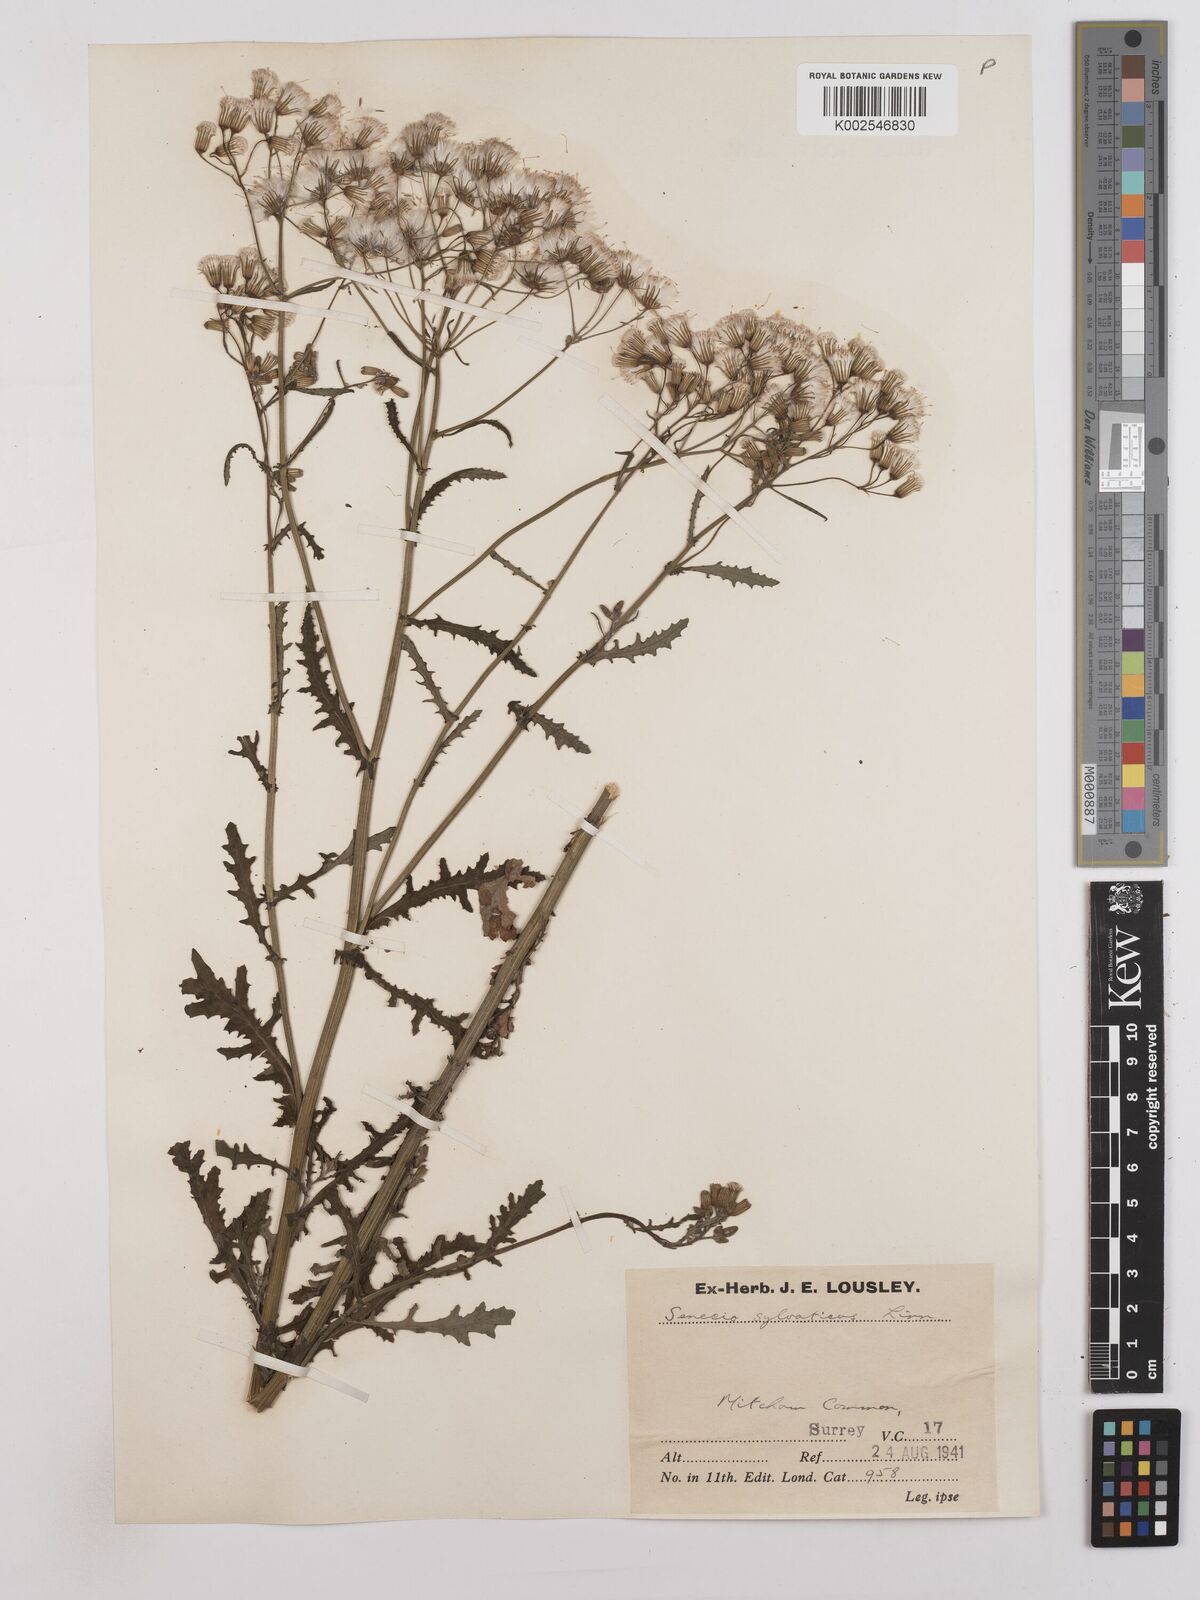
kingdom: Plantae
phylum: Tracheophyta
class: Magnoliopsida
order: Asterales
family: Asteraceae
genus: Senecio
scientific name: Senecio sylvaticus
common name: Woodland ragwort
